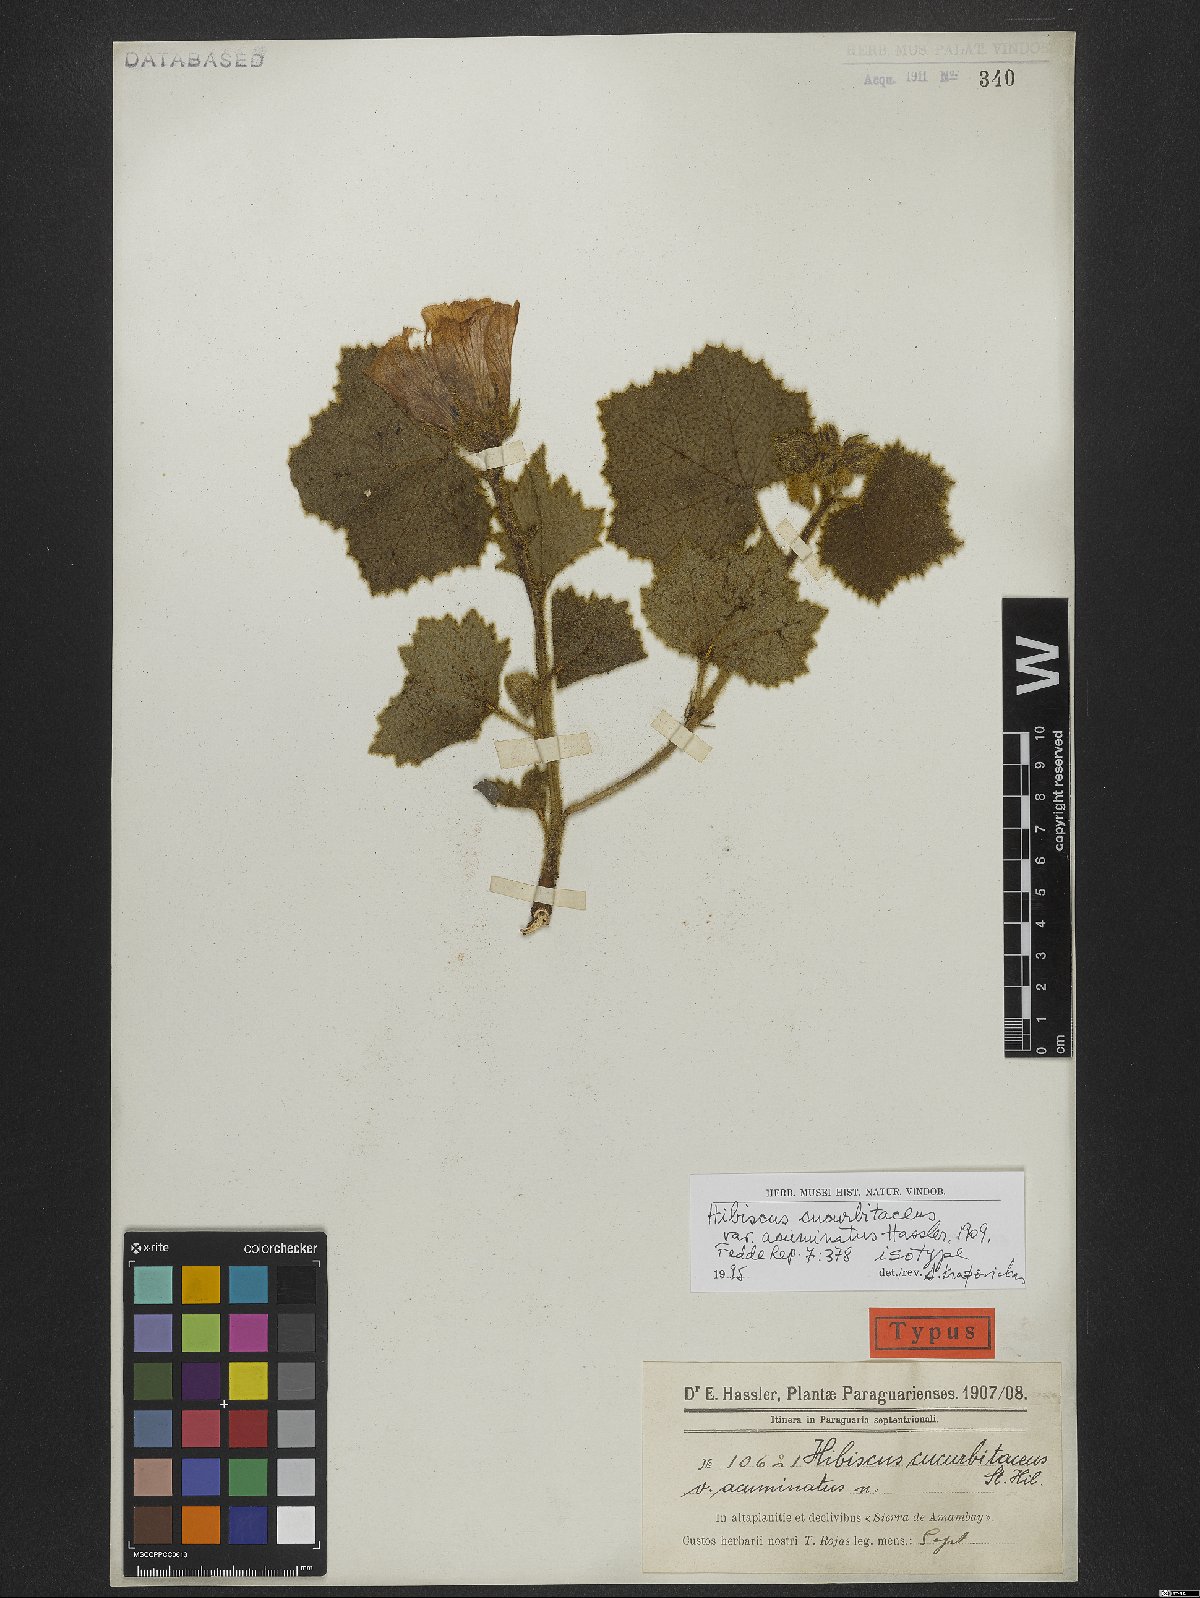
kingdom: Plantae
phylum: Tracheophyta
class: Magnoliopsida
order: Malvales
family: Malvaceae
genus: Hibiscus
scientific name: Hibiscus amambayensis
